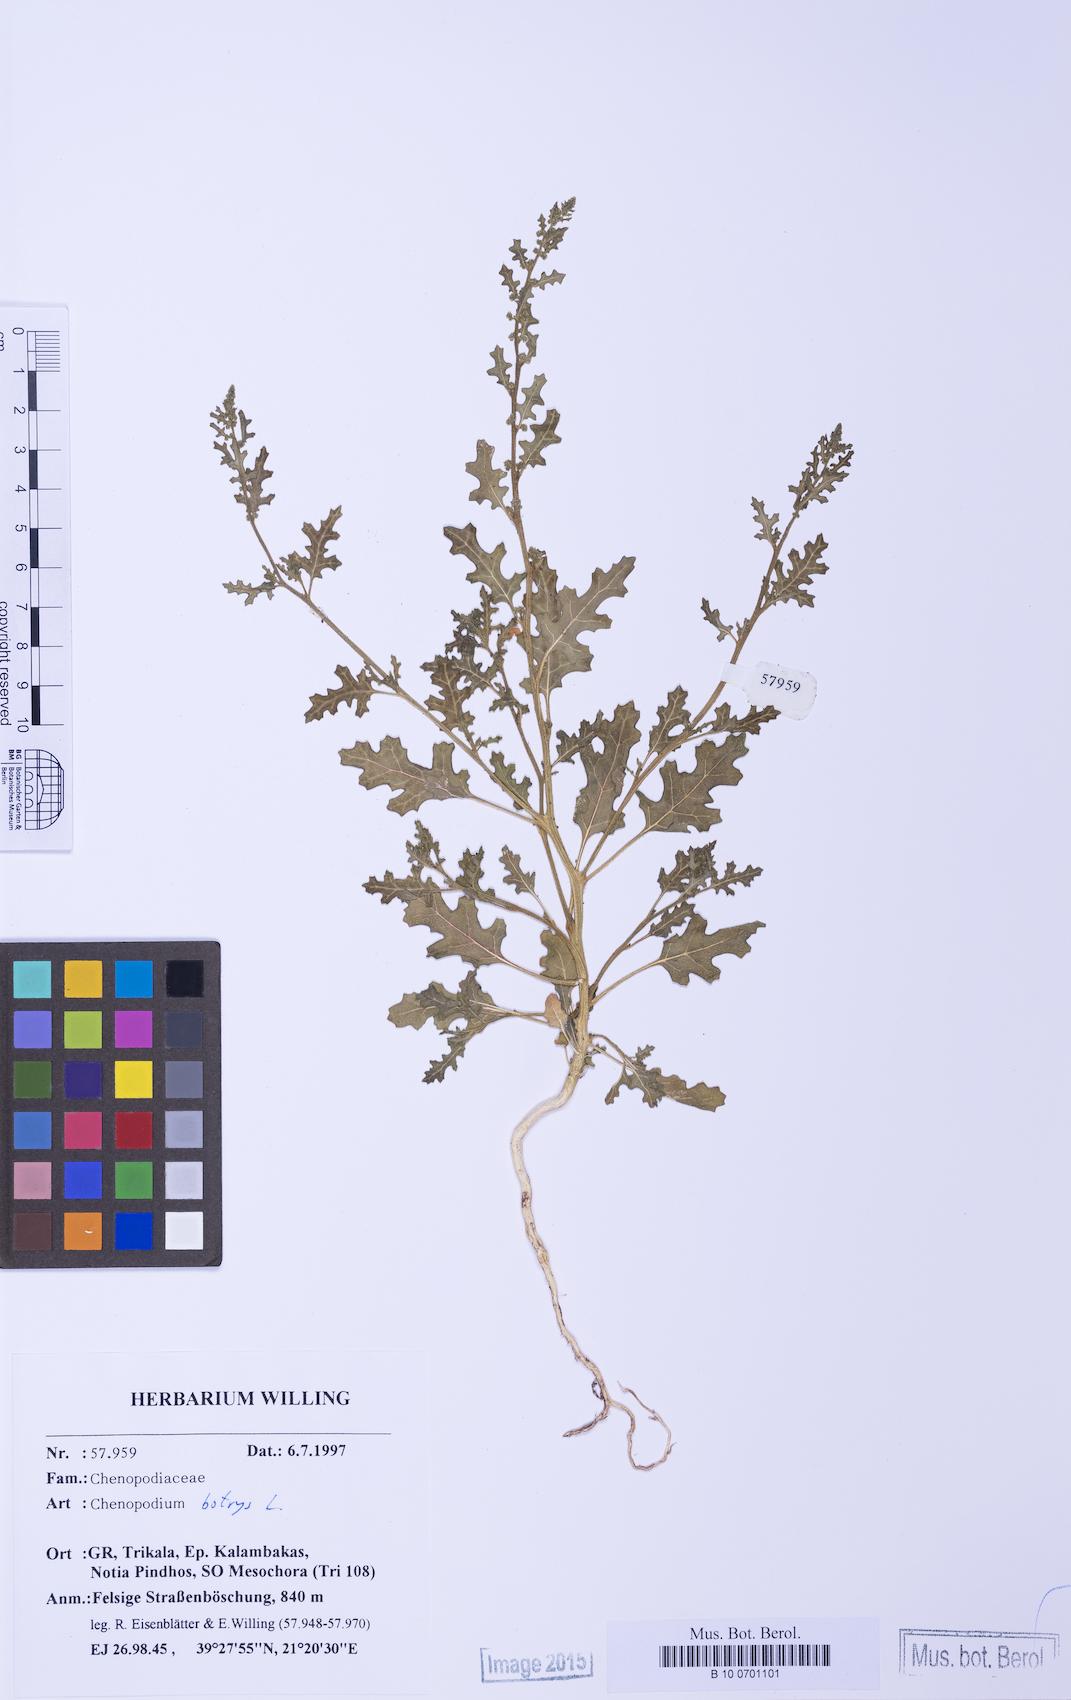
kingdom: Plantae
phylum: Tracheophyta
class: Magnoliopsida
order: Caryophyllales
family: Amaranthaceae
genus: Dysphania
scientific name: Dysphania botrys
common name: Feather-geranium
